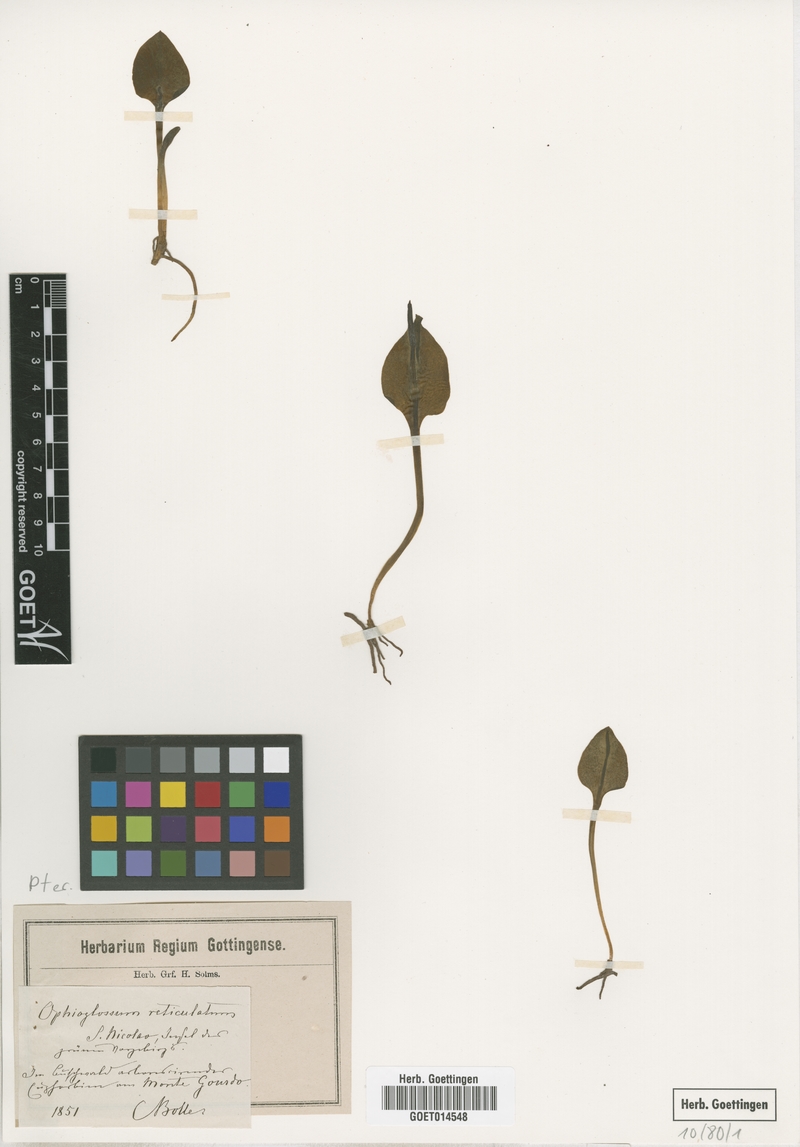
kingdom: Plantae
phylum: Tracheophyta
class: Polypodiopsida
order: Ophioglossales
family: Ophioglossaceae
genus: Ophioglossum
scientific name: Ophioglossum reticulatum
